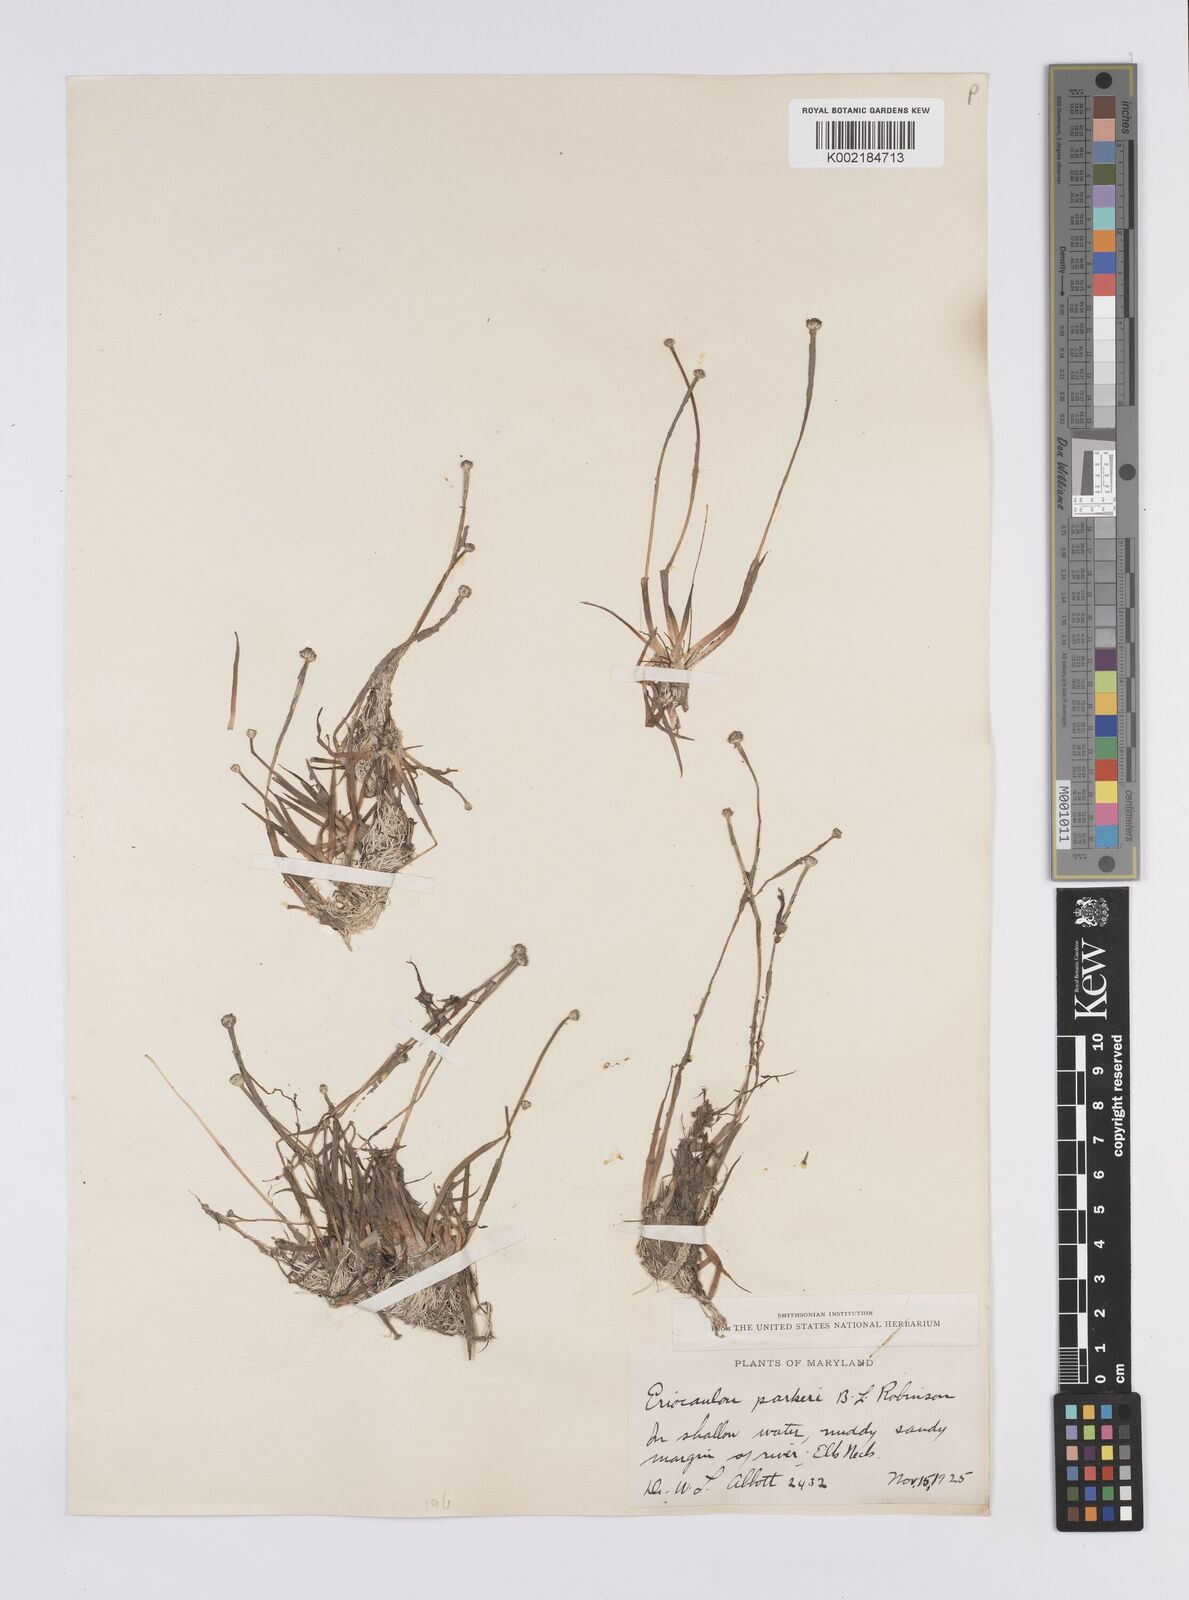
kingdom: Plantae
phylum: Tracheophyta
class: Liliopsida
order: Poales
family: Eriocaulaceae
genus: Eriocaulon
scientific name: Eriocaulon parkeri
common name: Parker's pipewort
